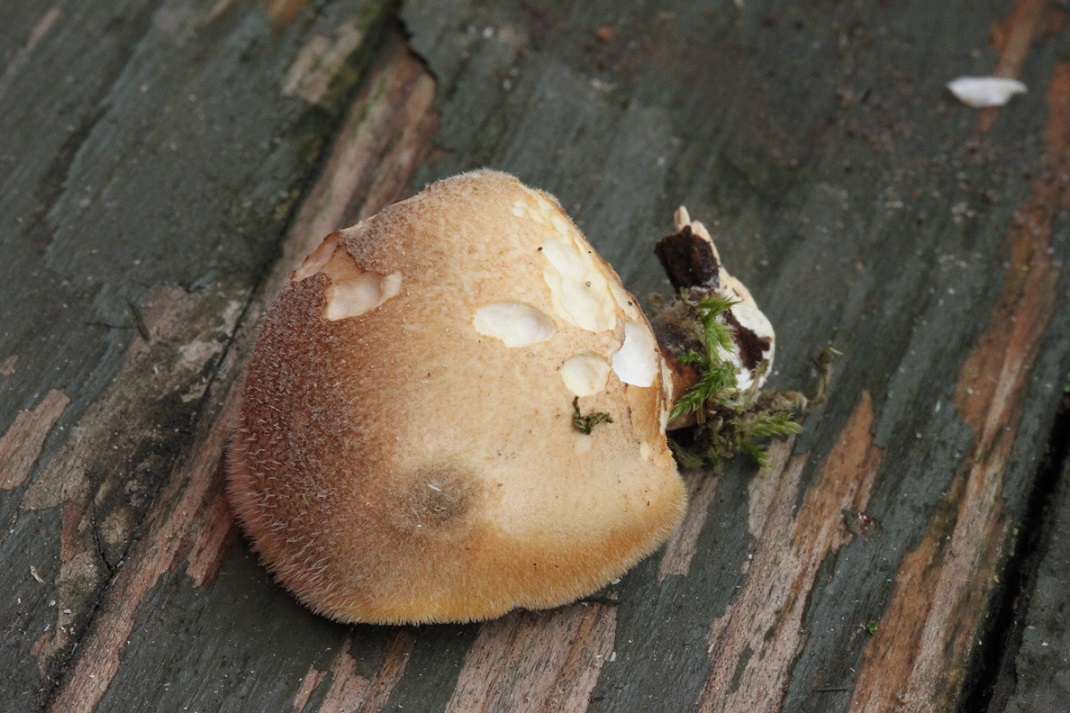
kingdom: Fungi
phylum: Basidiomycota
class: Agaricomycetes
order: Polyporales
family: Polyporaceae
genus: Lentinus
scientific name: Lentinus substrictus
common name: forårs-stilkporesvamp
